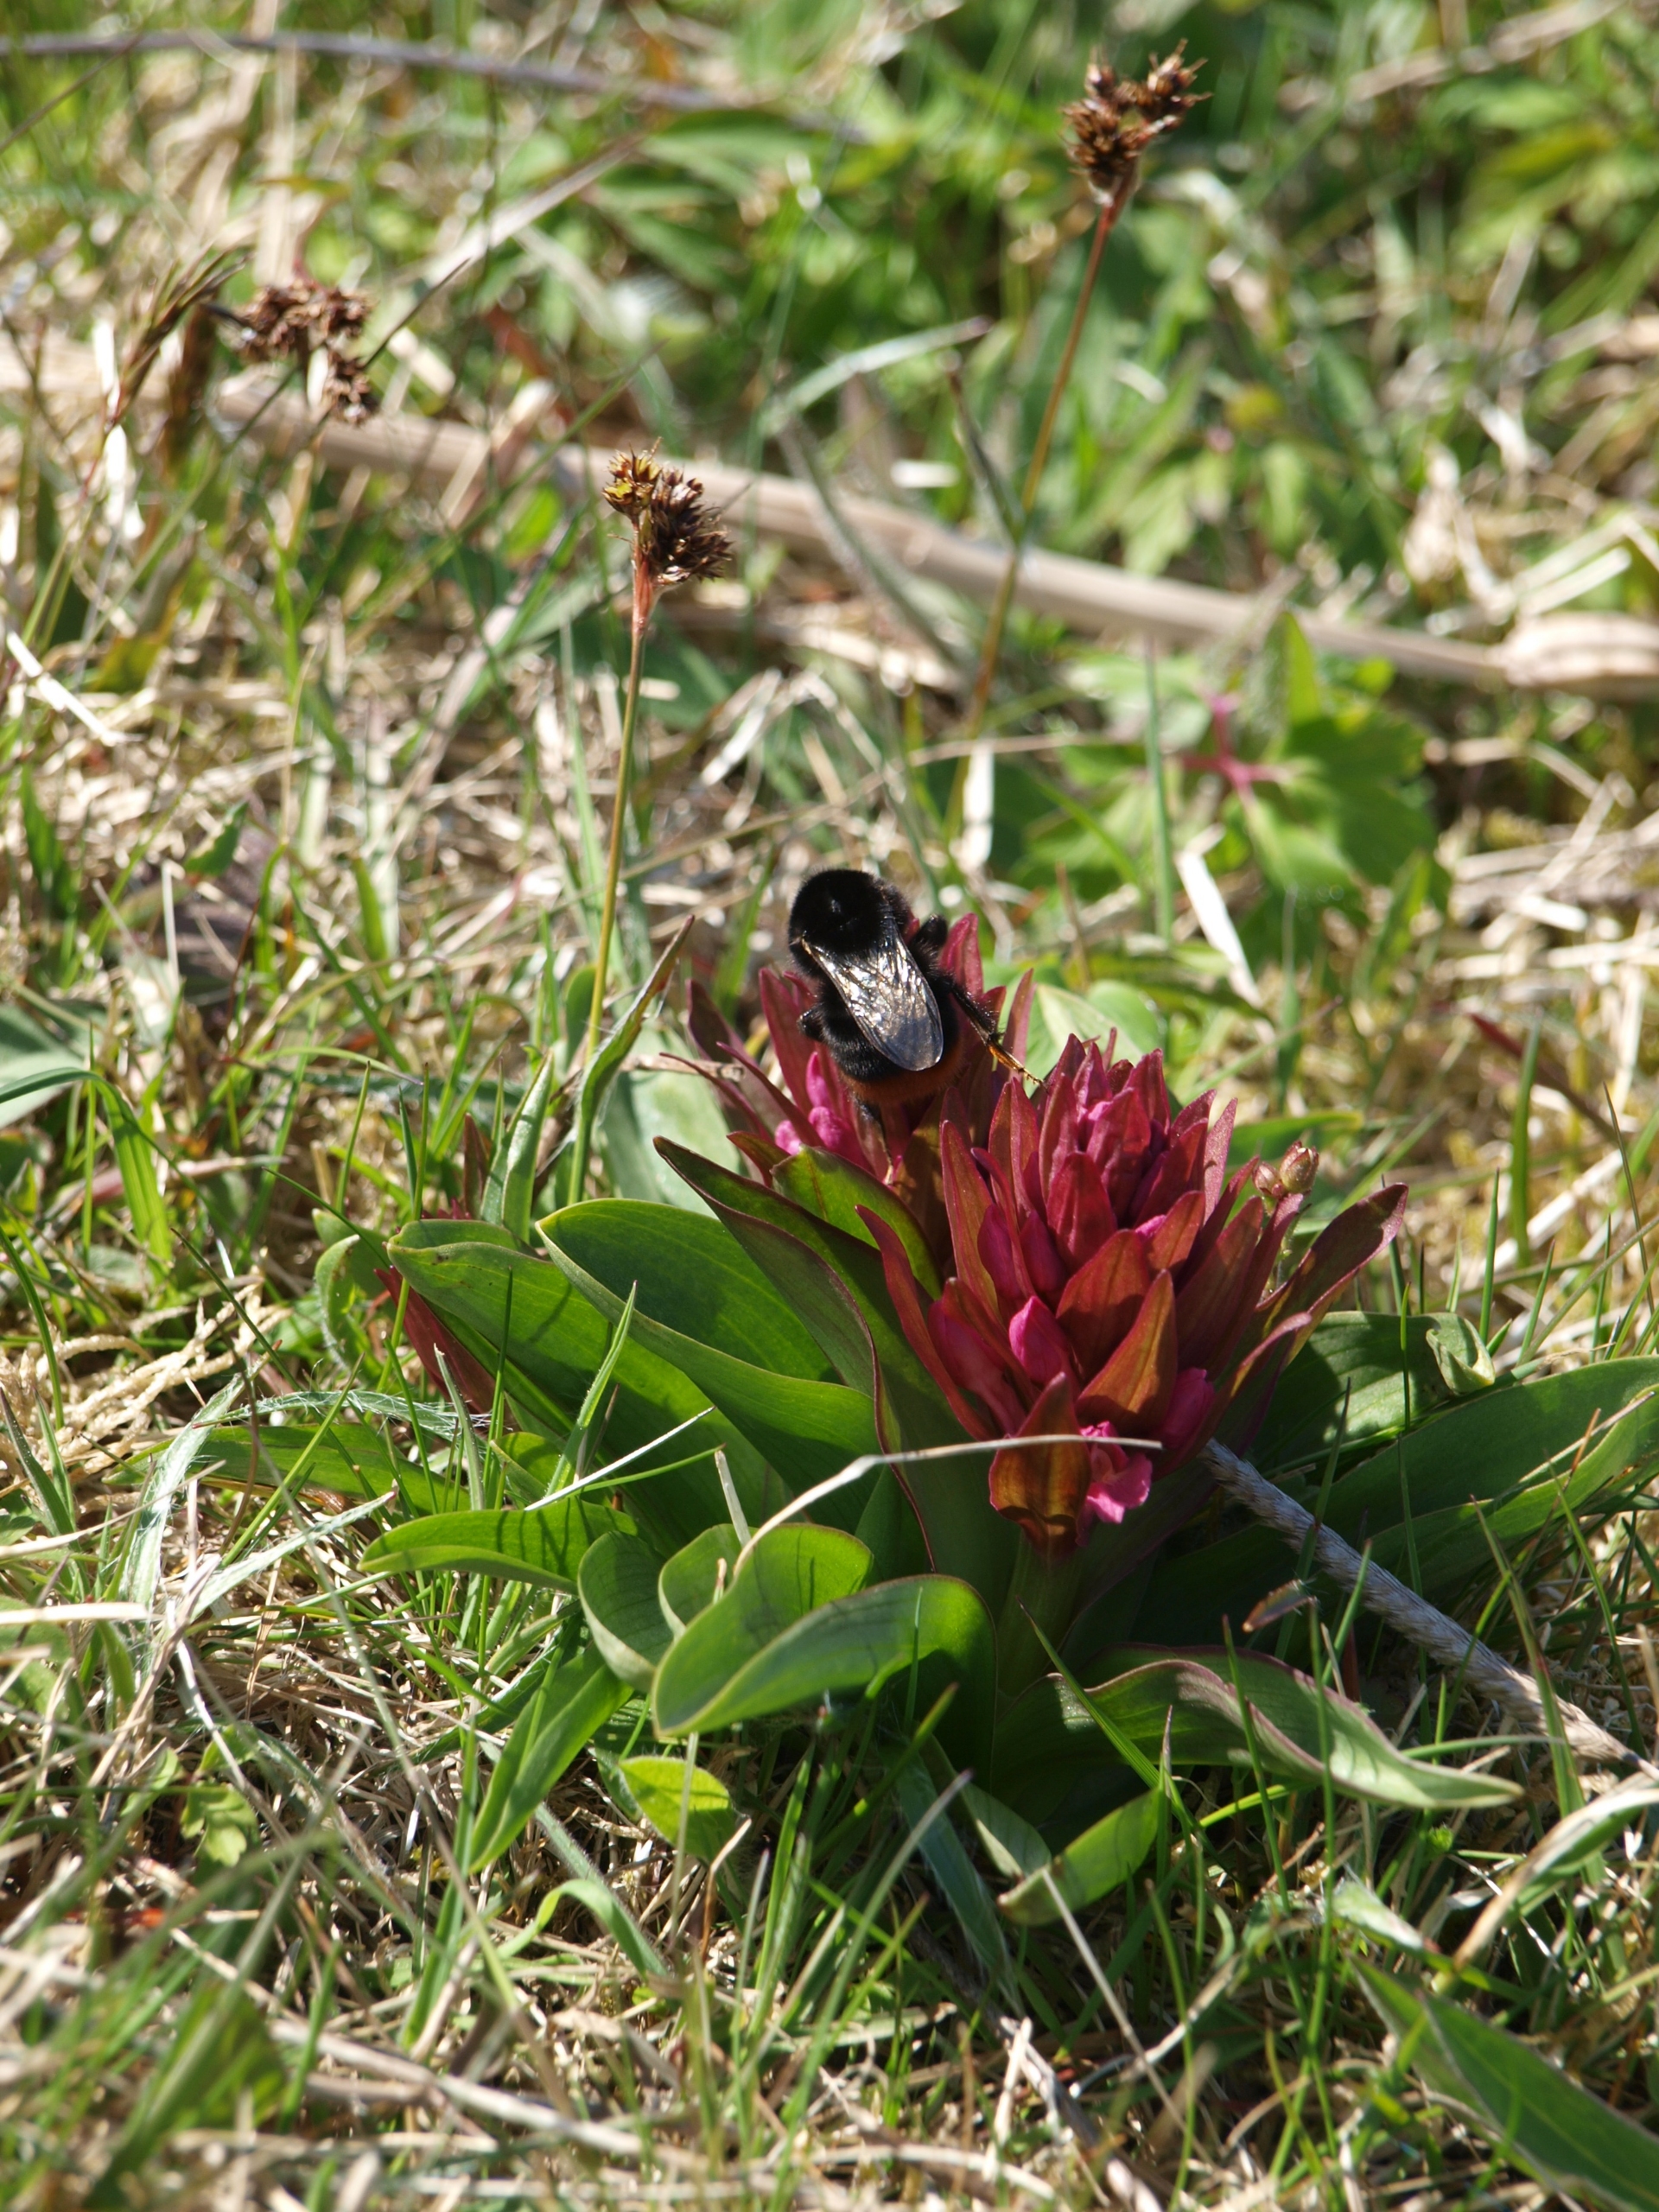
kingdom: Plantae
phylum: Tracheophyta
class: Liliopsida
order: Asparagales
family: Orchidaceae
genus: Dactylorhiza
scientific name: Dactylorhiza sambucina
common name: Hylde-gøgeurt
